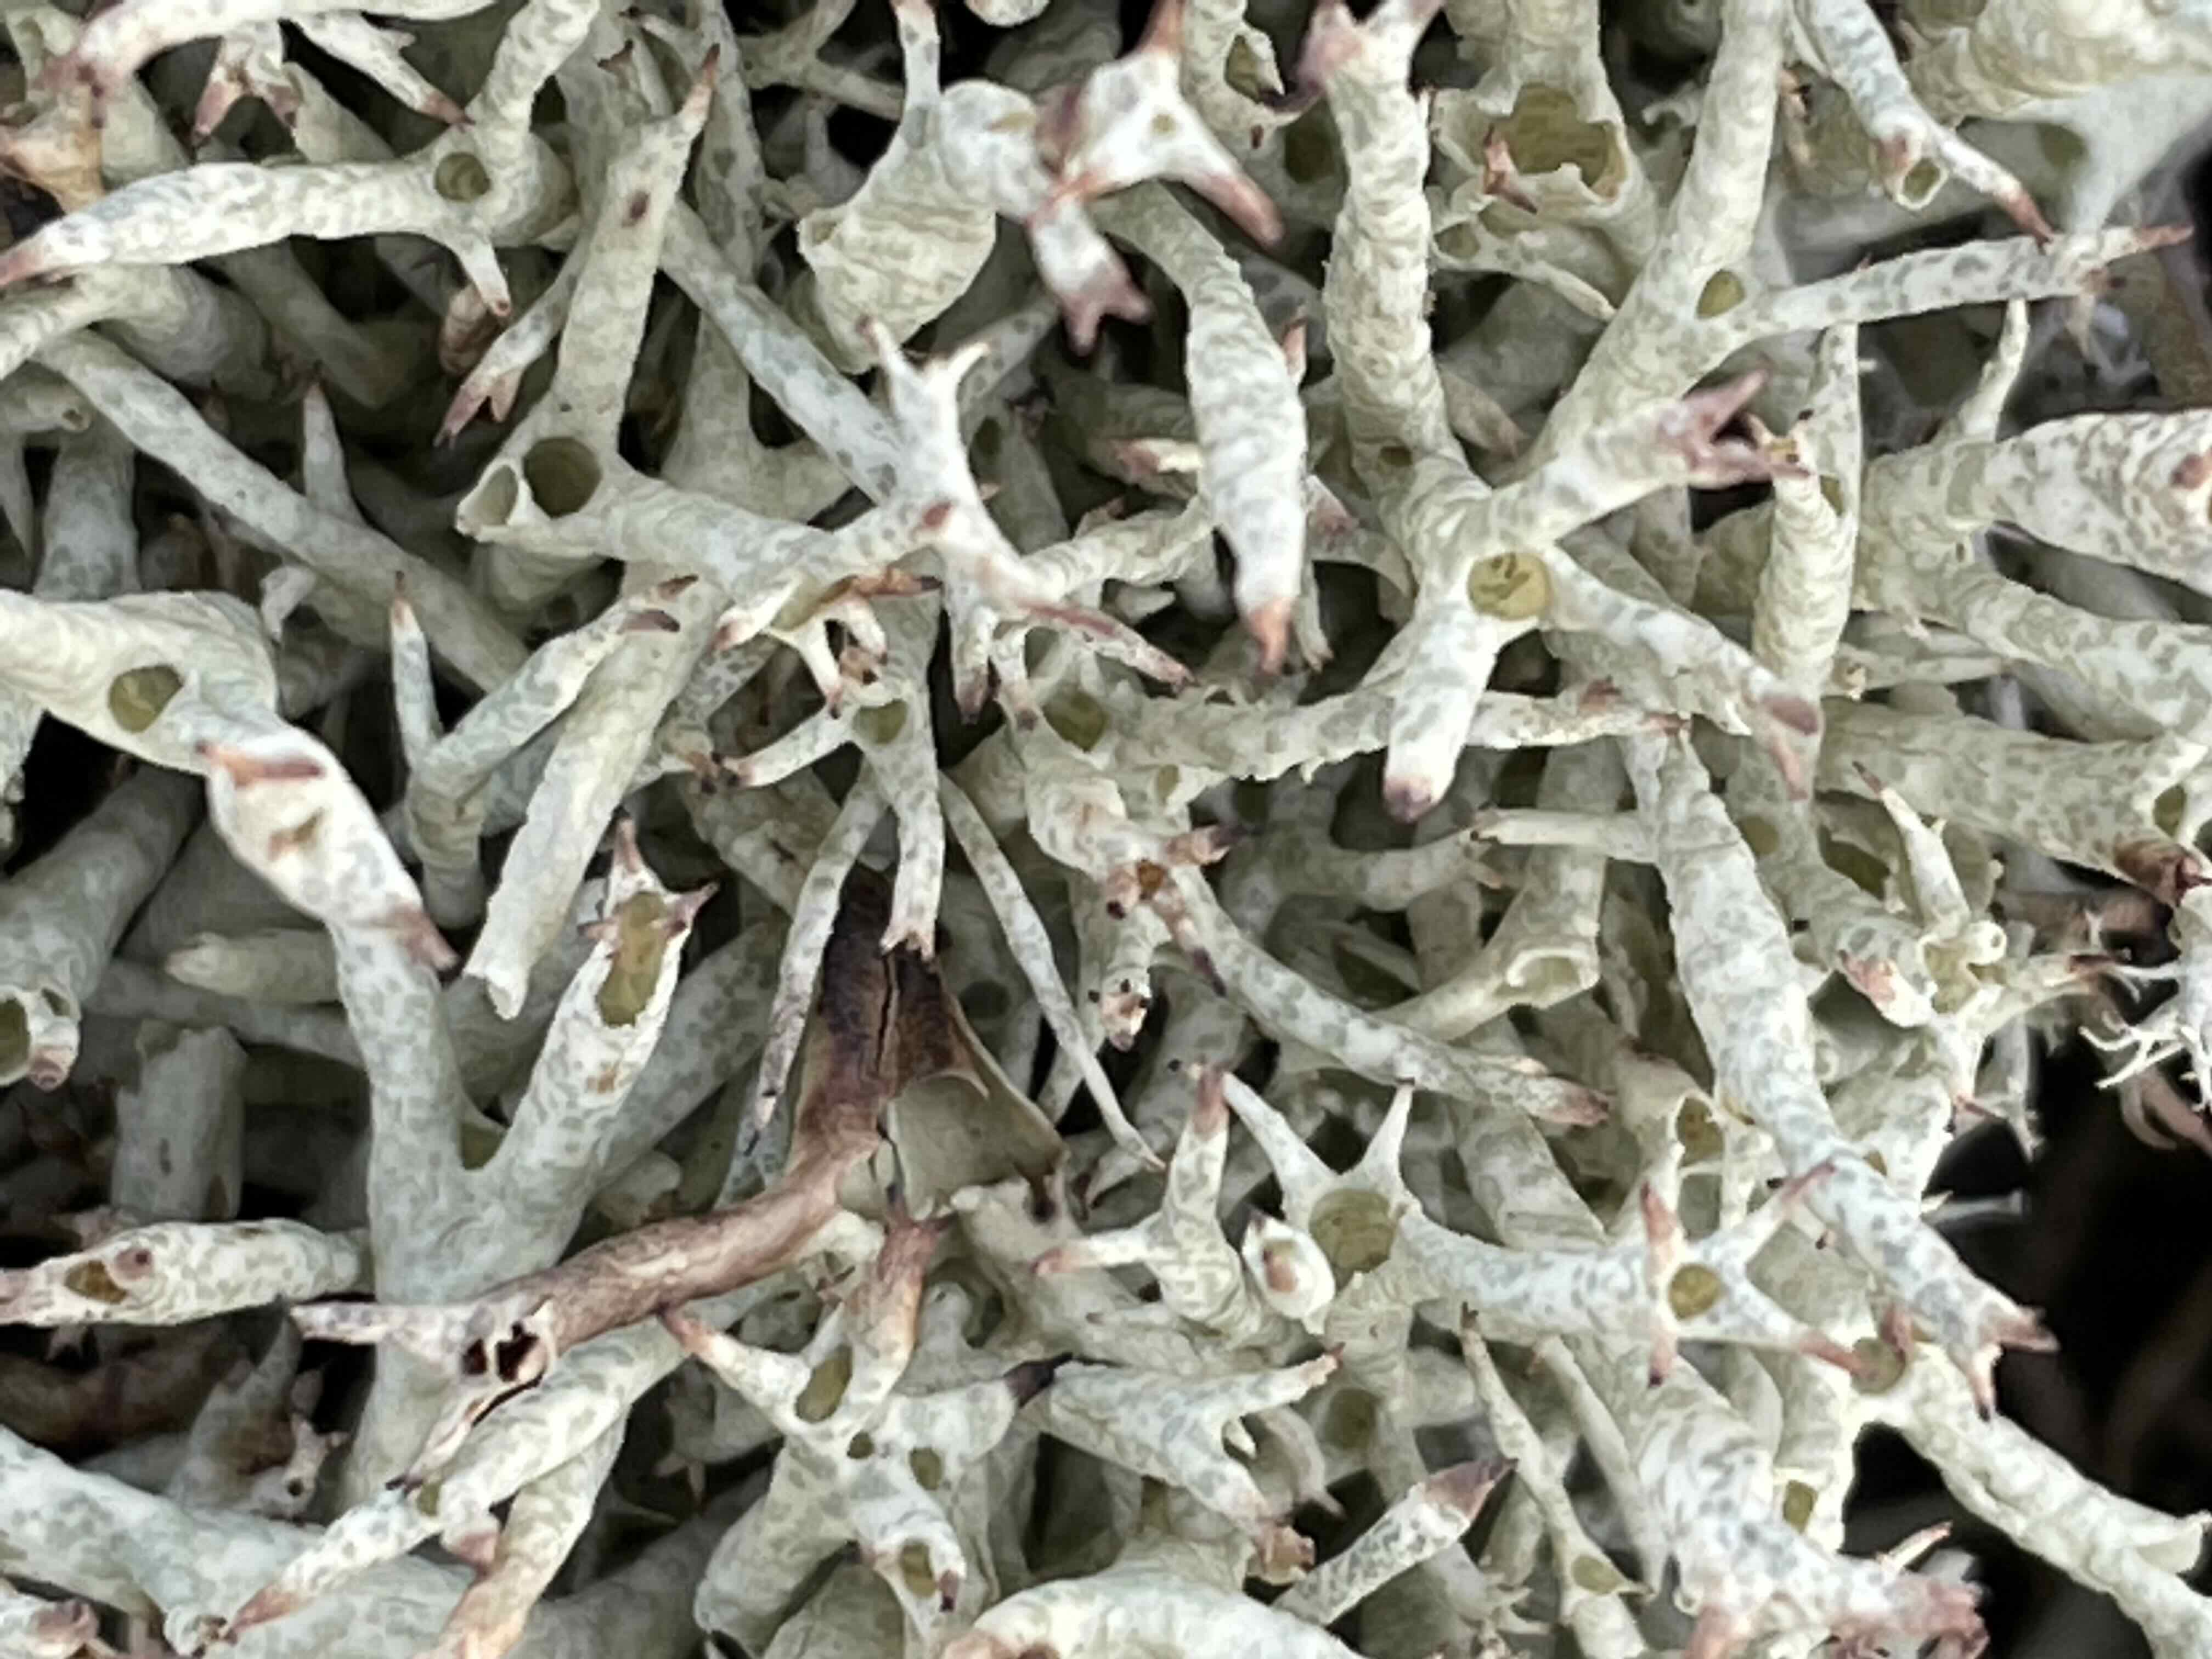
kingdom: Fungi
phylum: Ascomycota
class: Lecanoromycetes
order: Lecanorales
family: Cladoniaceae
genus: Cladonia
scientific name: Cladonia uncialis
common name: pigget bægerlav
